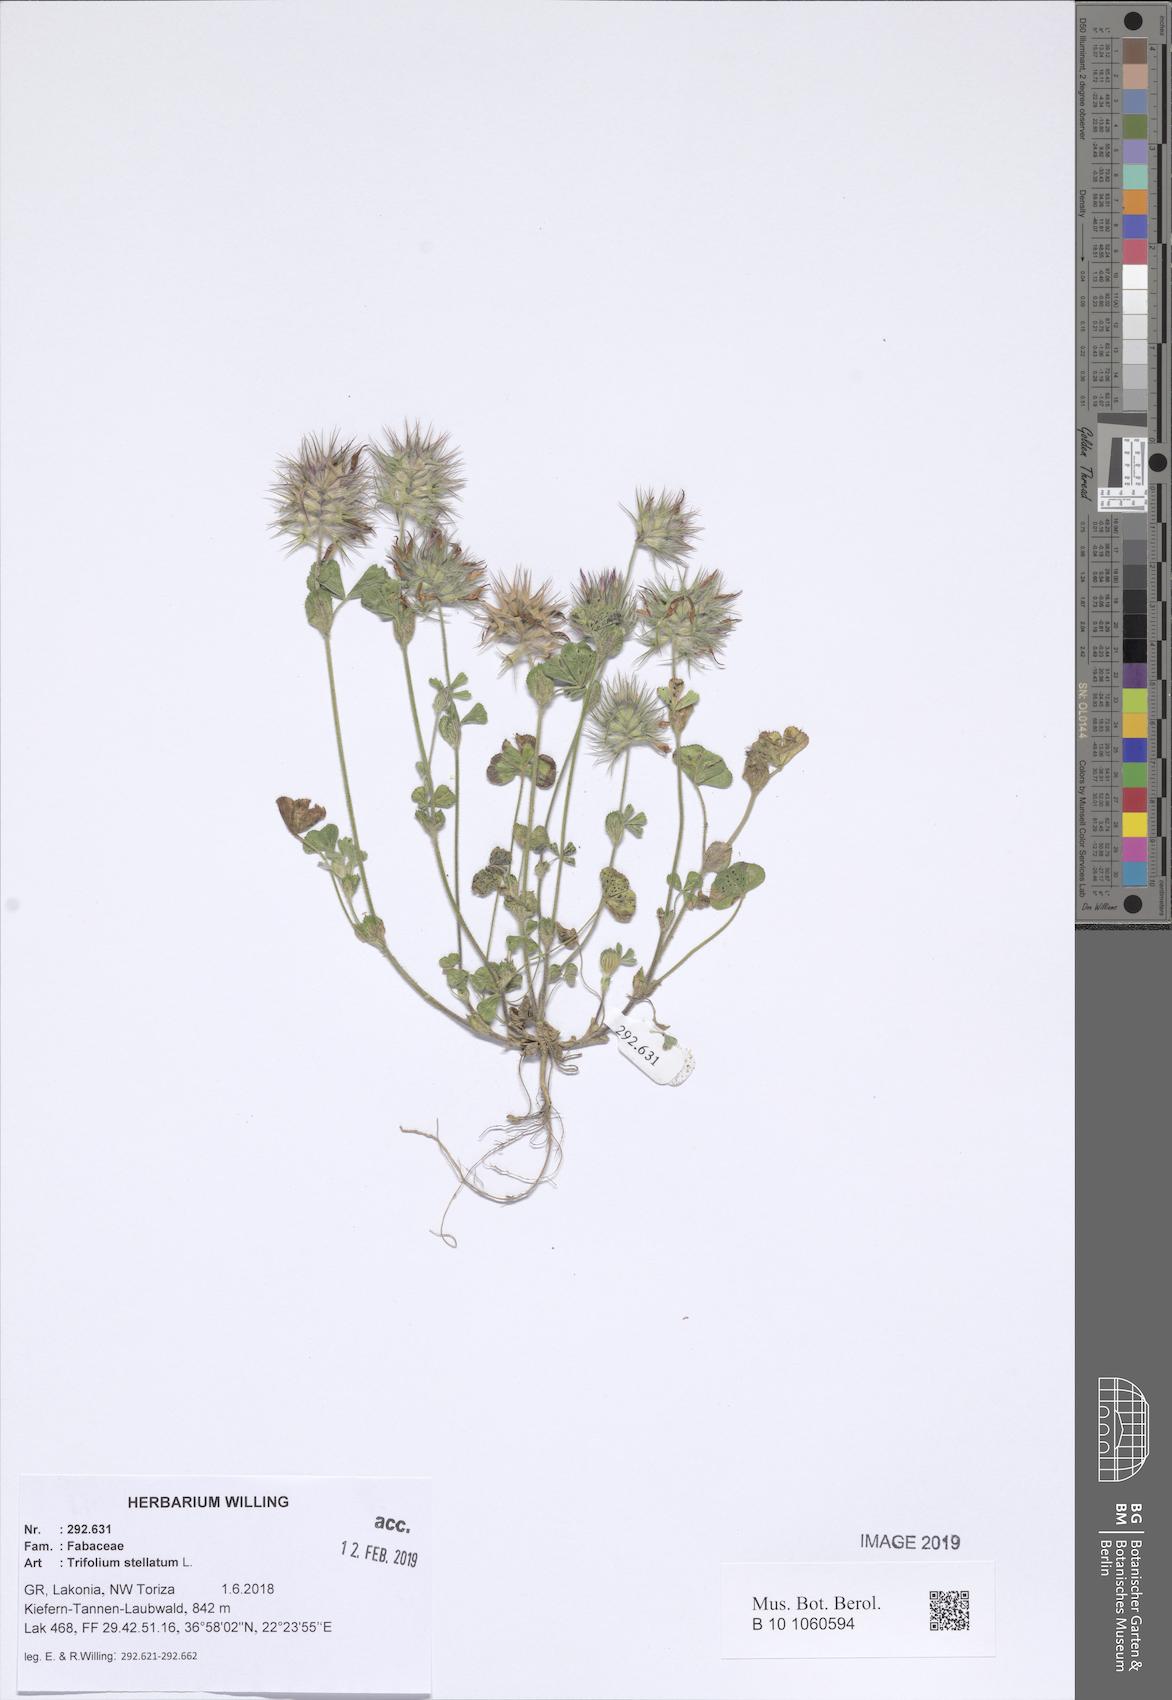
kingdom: Plantae
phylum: Tracheophyta
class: Magnoliopsida
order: Fabales
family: Fabaceae
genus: Trifolium
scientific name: Trifolium stellatum
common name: Starry clover
